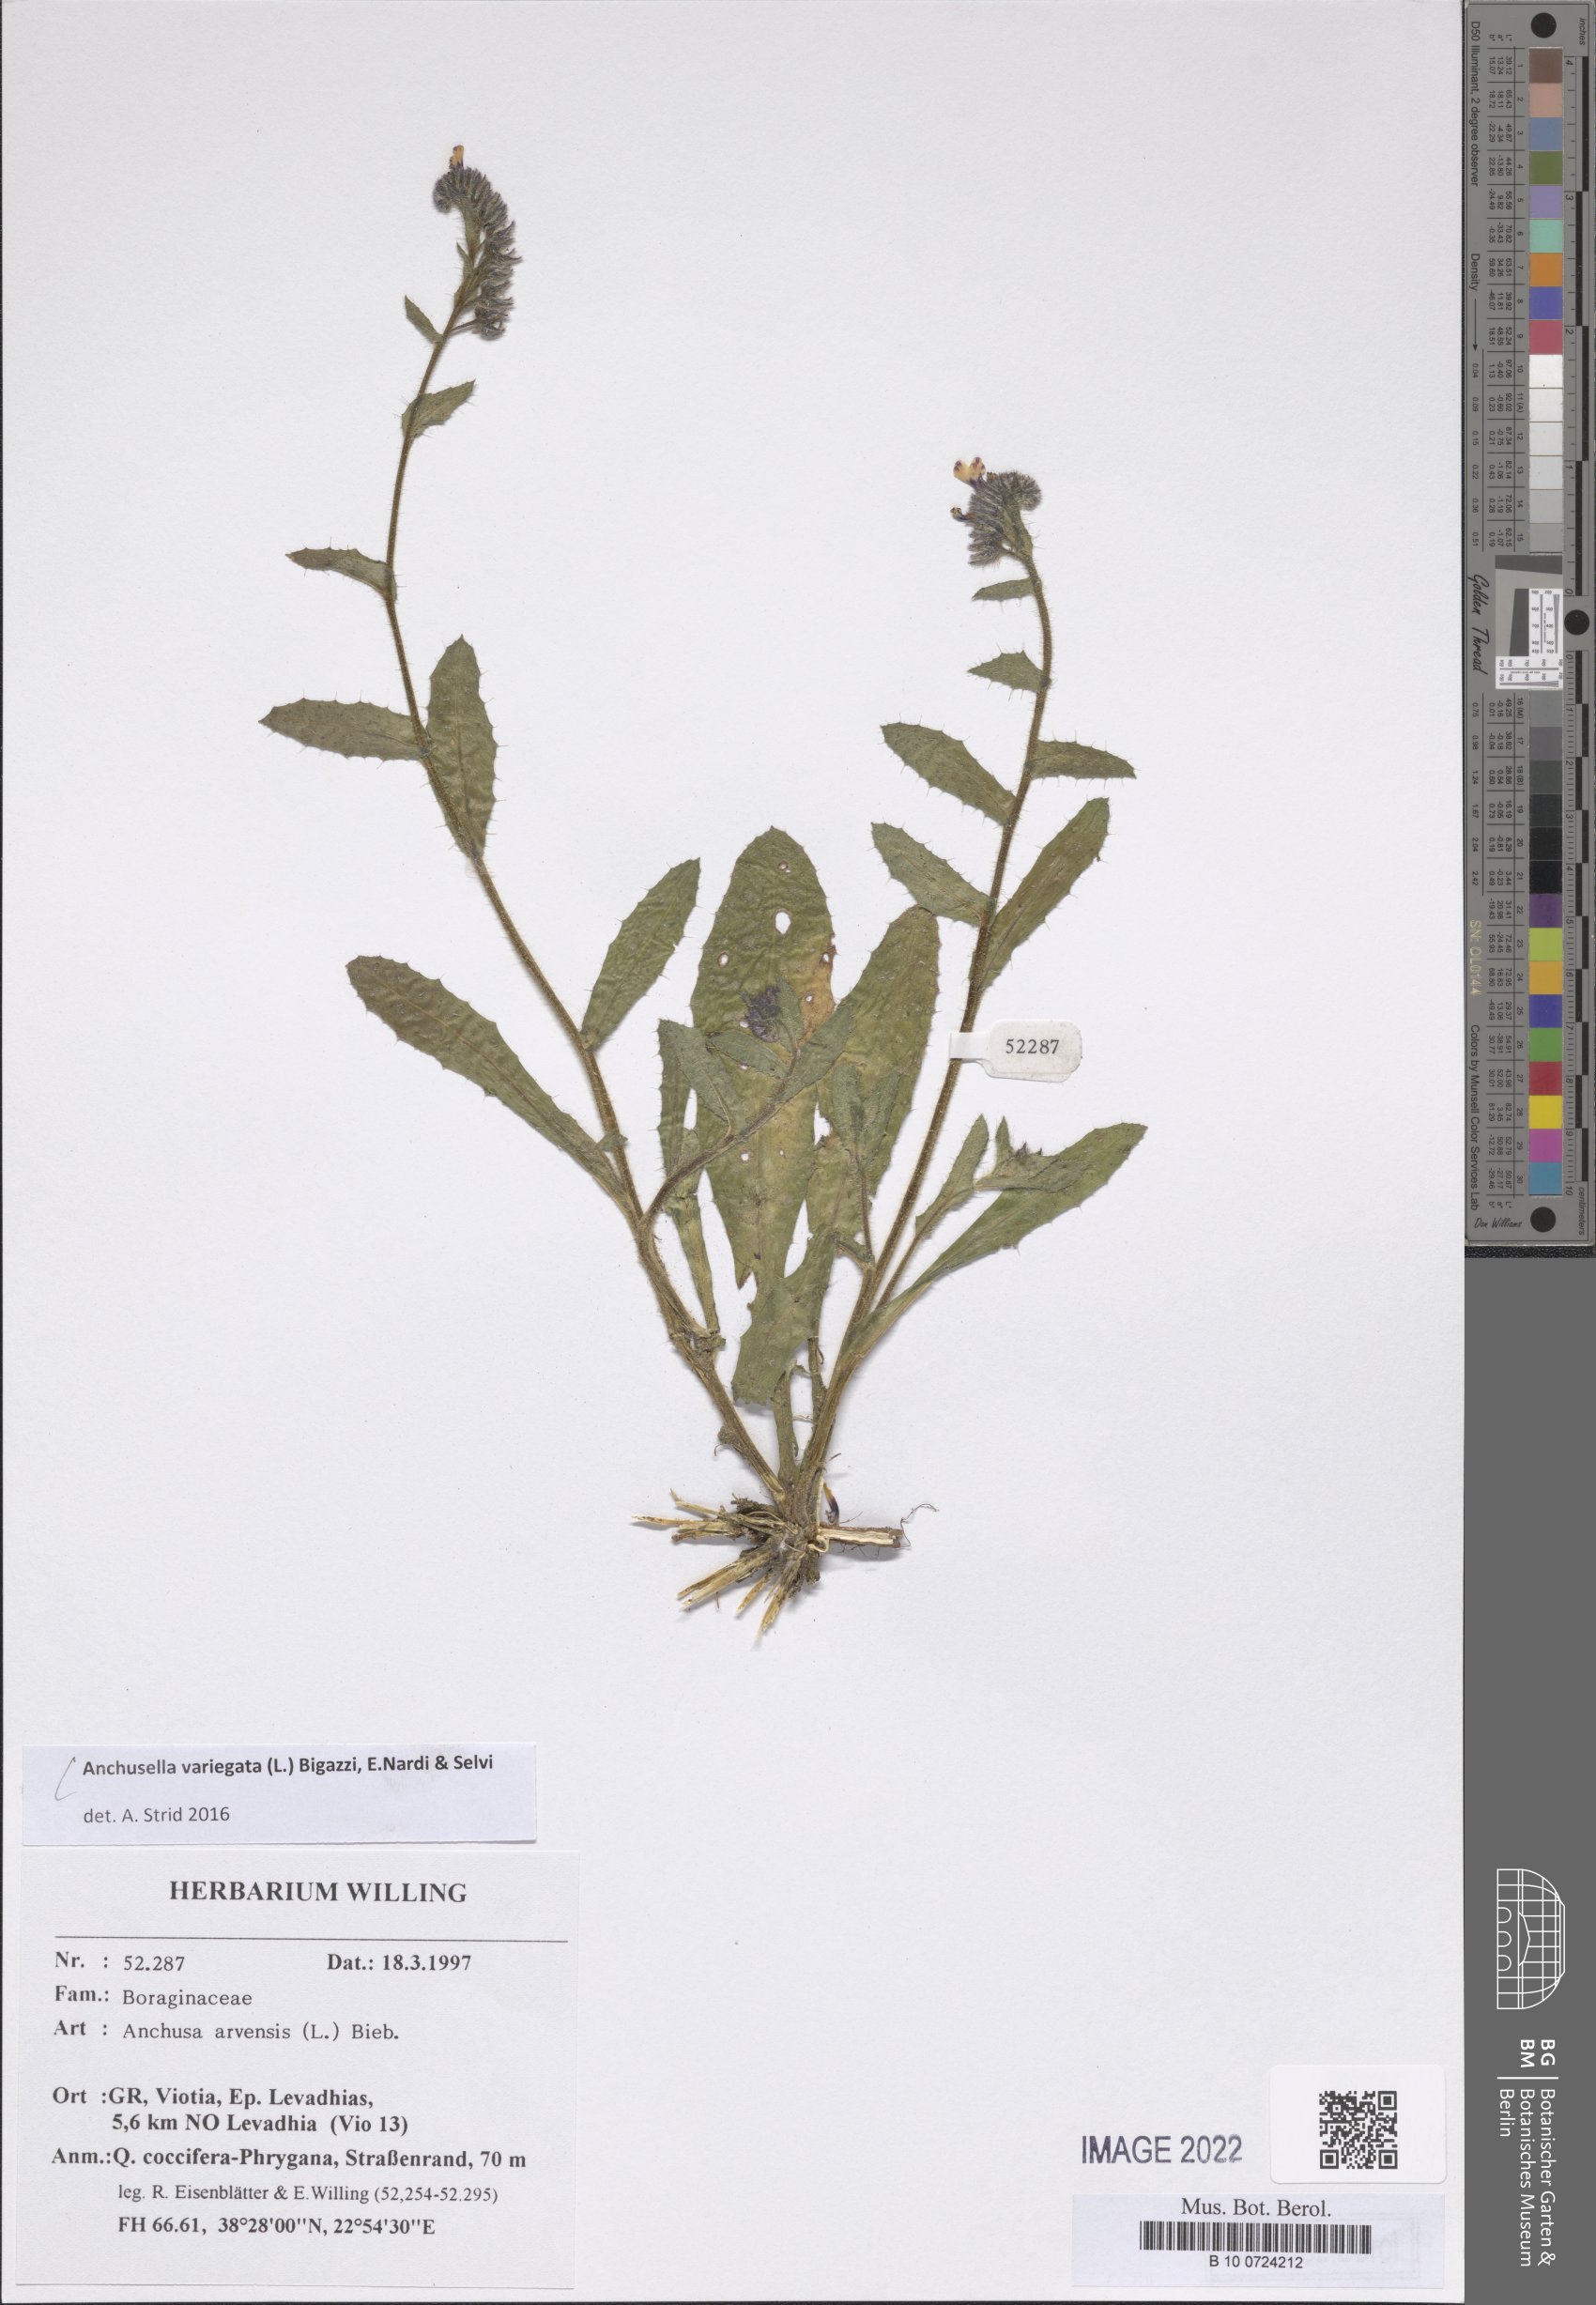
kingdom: Plantae
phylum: Tracheophyta
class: Magnoliopsida
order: Boraginales
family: Boraginaceae
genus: Anchusella
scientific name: Anchusella variegata
